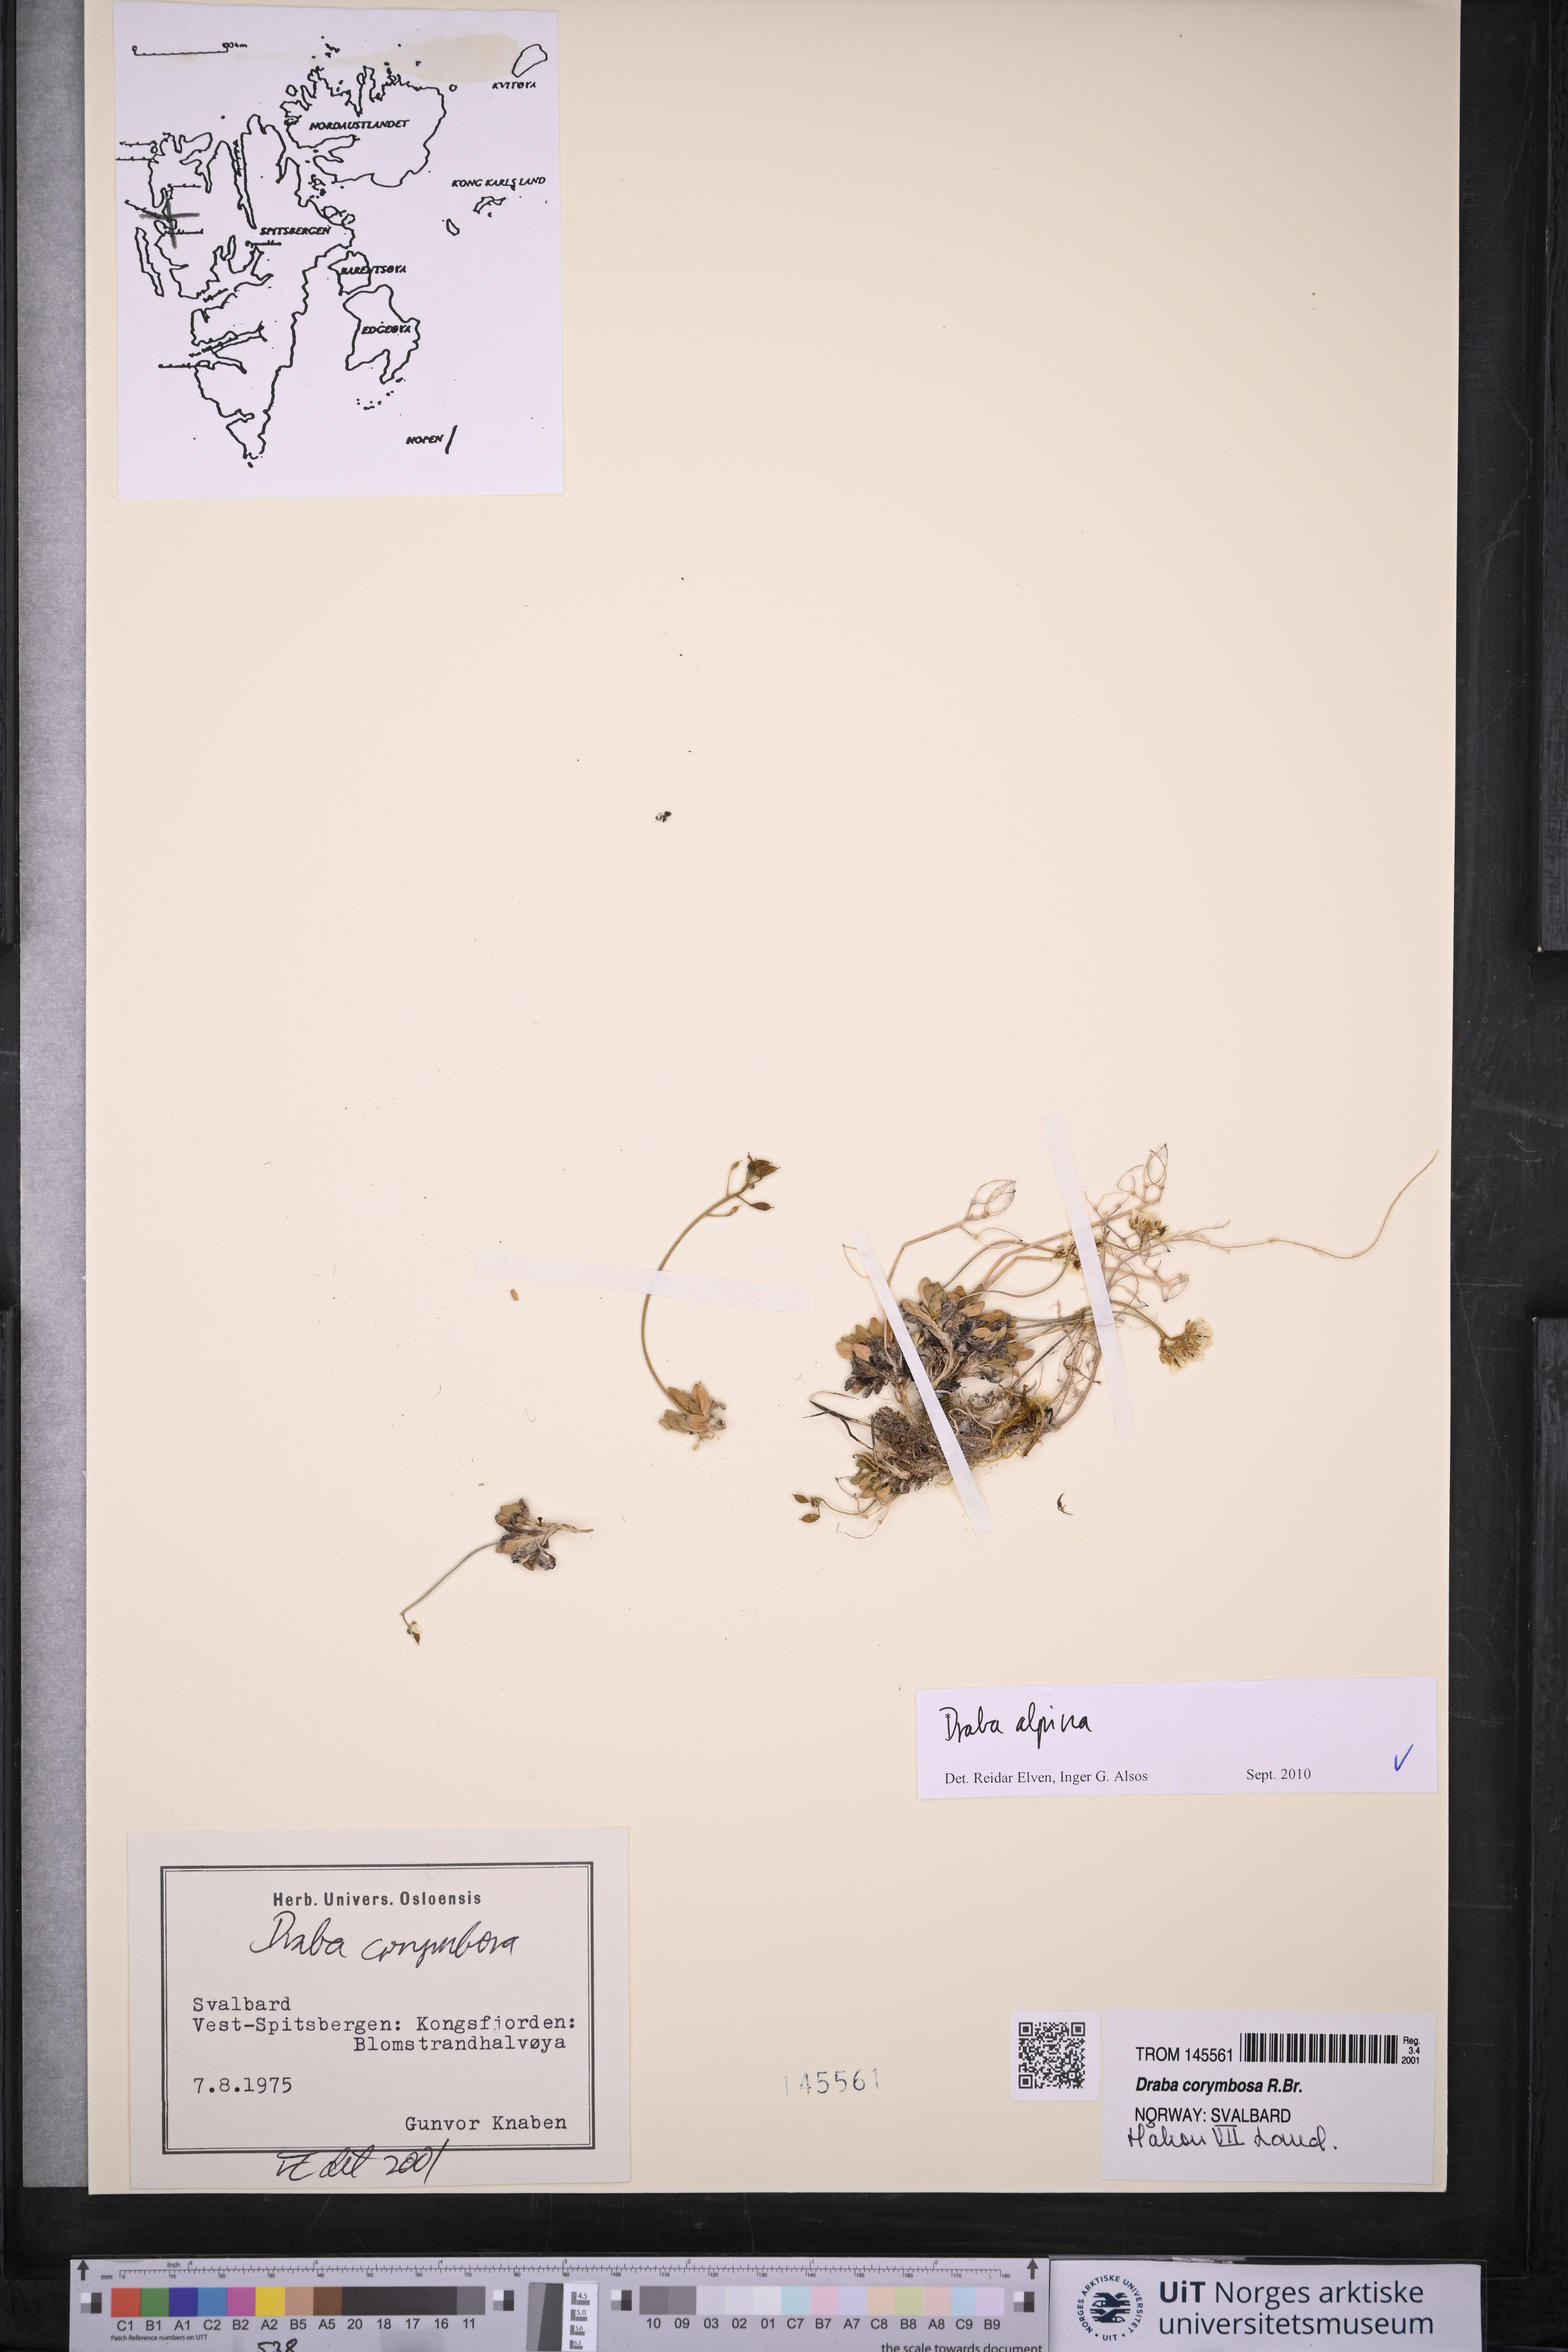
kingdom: Plantae
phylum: Tracheophyta
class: Magnoliopsida
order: Brassicales
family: Brassicaceae
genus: Draba
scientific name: Draba alpina
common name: Alpine draba
